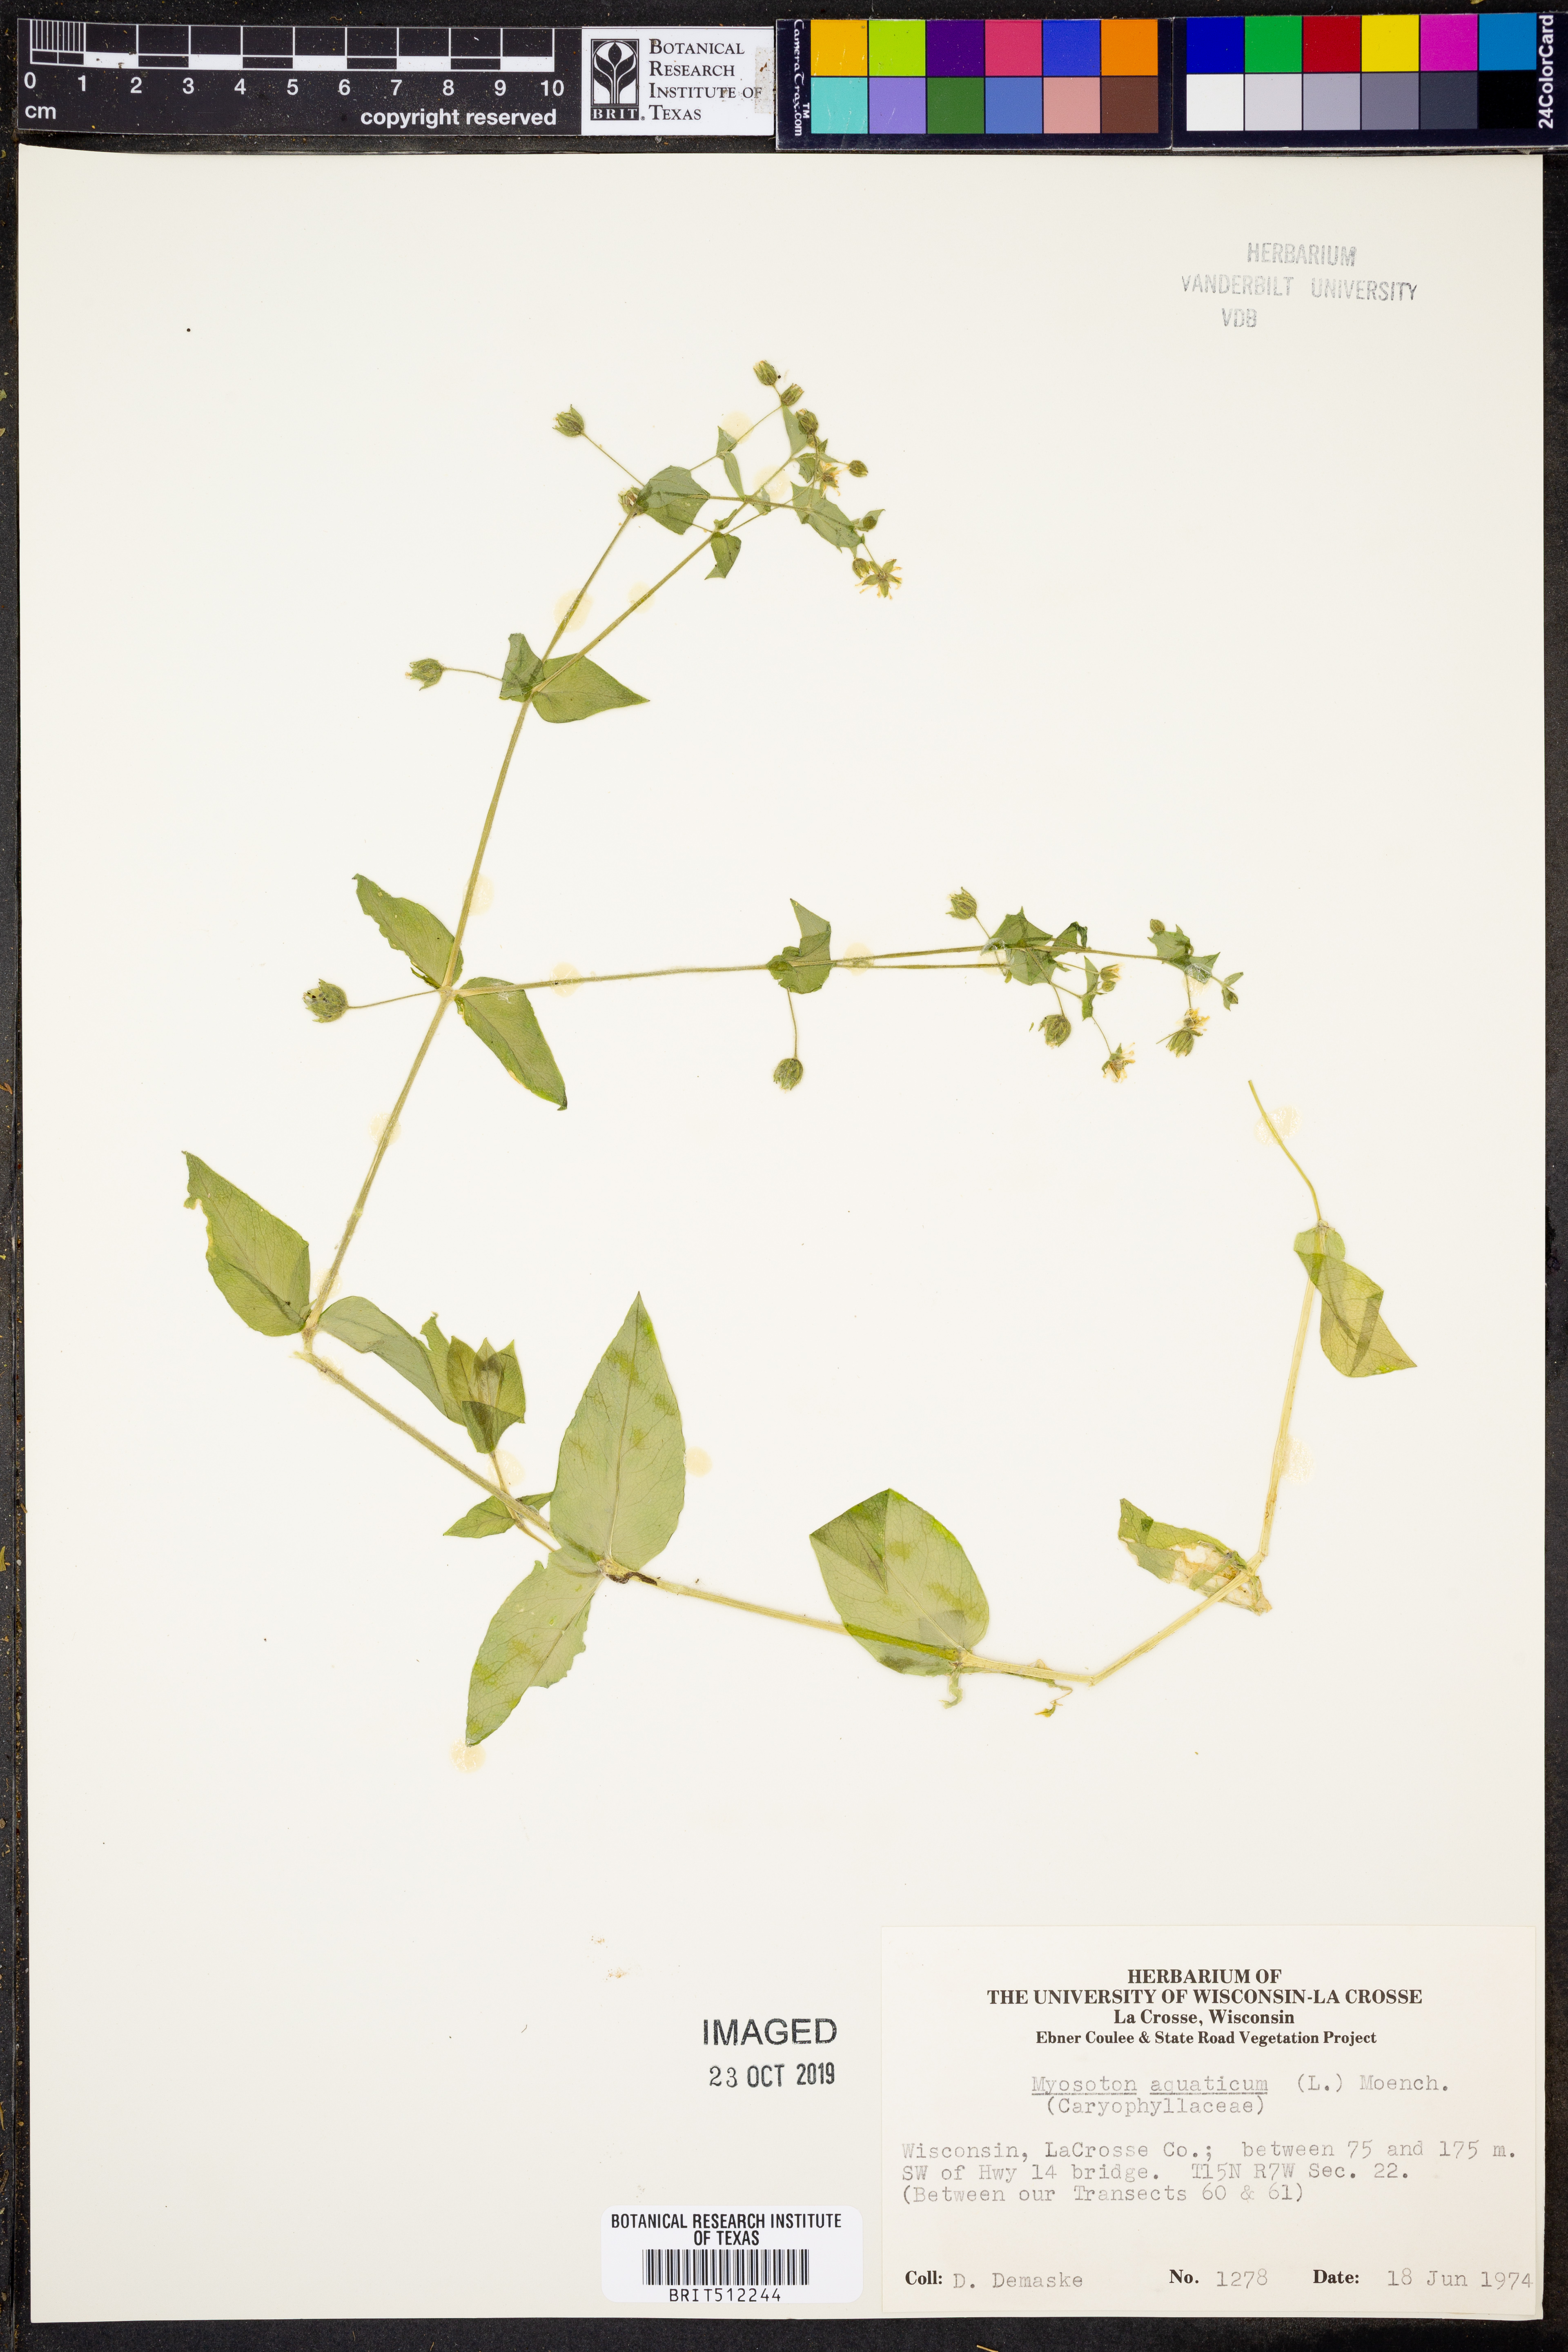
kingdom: Plantae
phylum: Tracheophyta
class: Magnoliopsida
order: Caryophyllales
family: Caryophyllaceae
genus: Stellaria
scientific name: Stellaria aquatica
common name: Water chickweed
